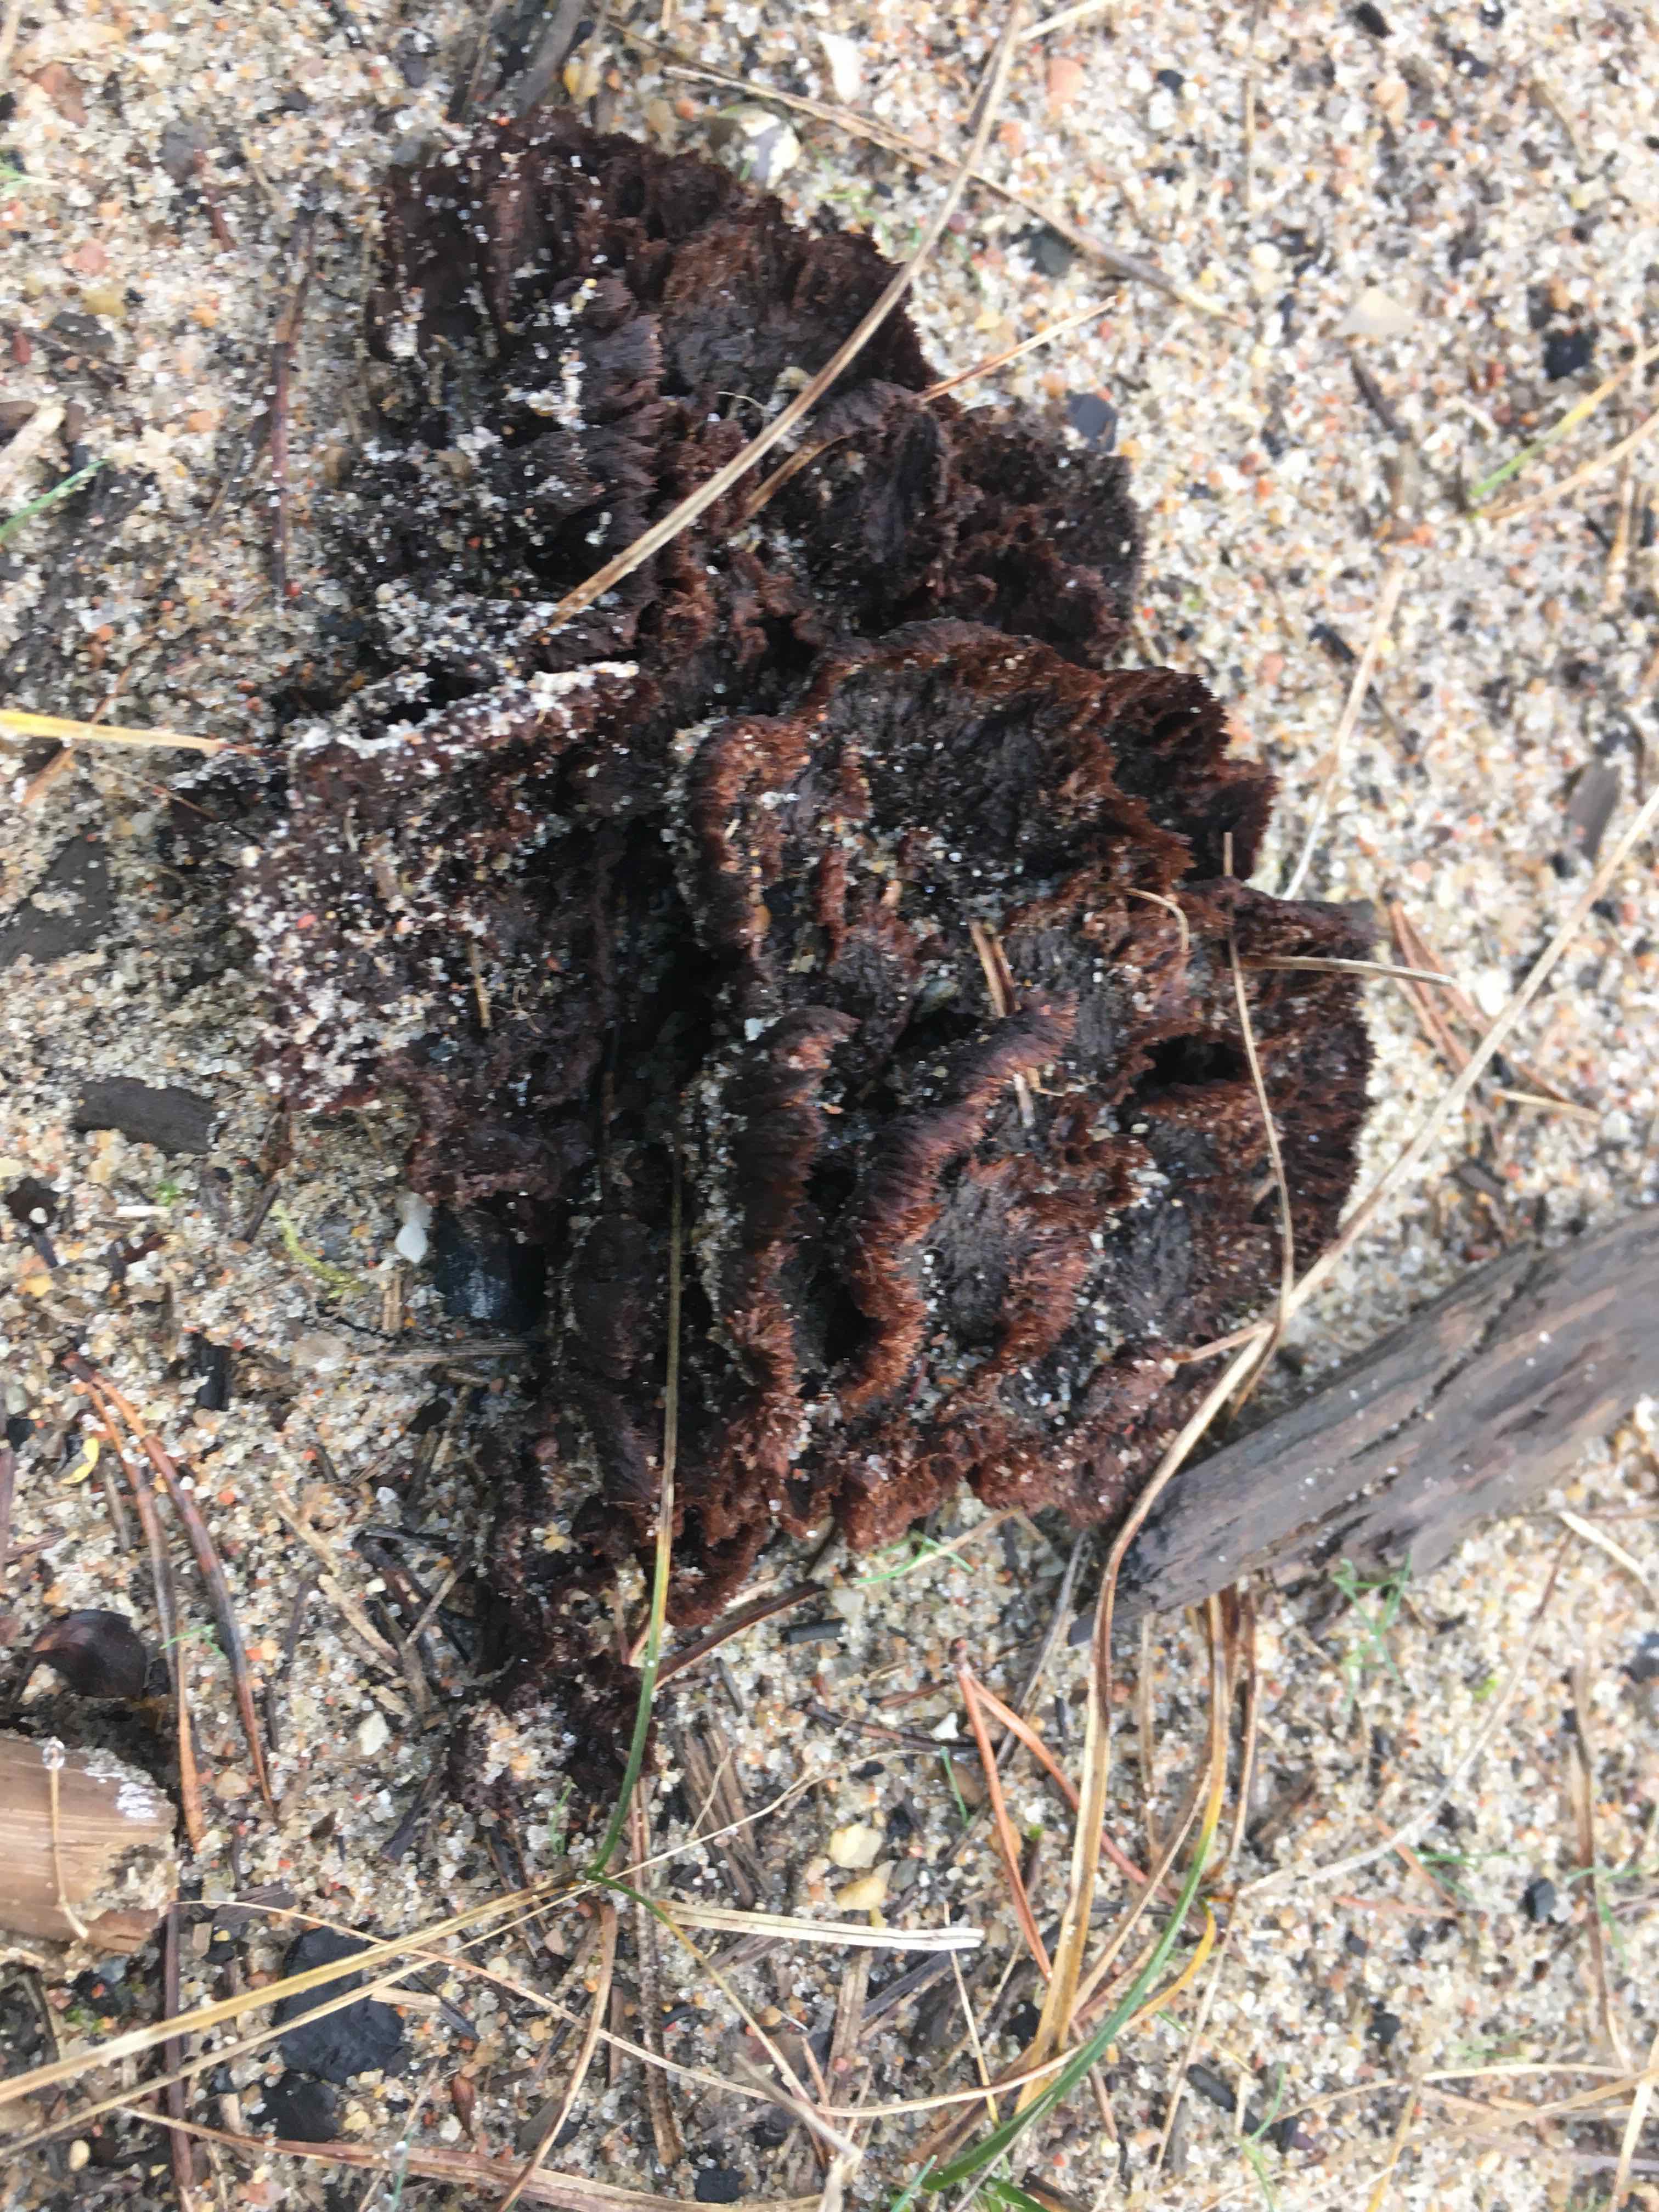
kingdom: Fungi
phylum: Basidiomycota
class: Agaricomycetes
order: Thelephorales
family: Thelephoraceae
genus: Thelephora
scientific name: Thelephora terrestris
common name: fliget frynsesvamp
